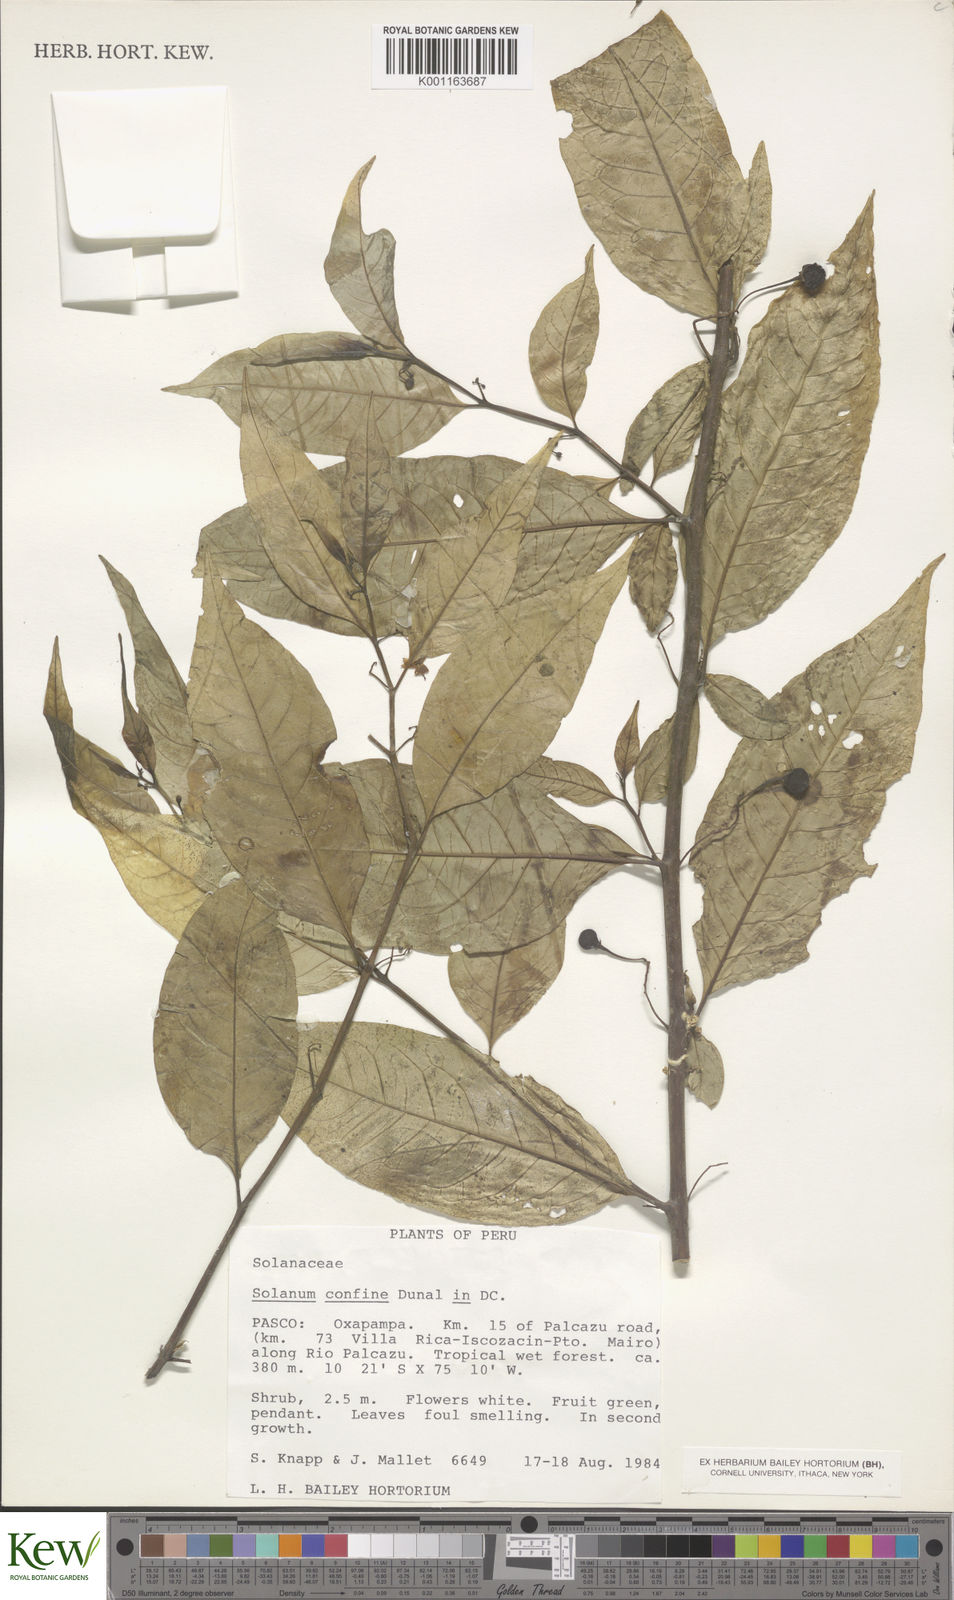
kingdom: Plantae
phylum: Tracheophyta
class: Magnoliopsida
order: Solanales
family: Solanaceae
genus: Solanum
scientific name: Solanum confine
